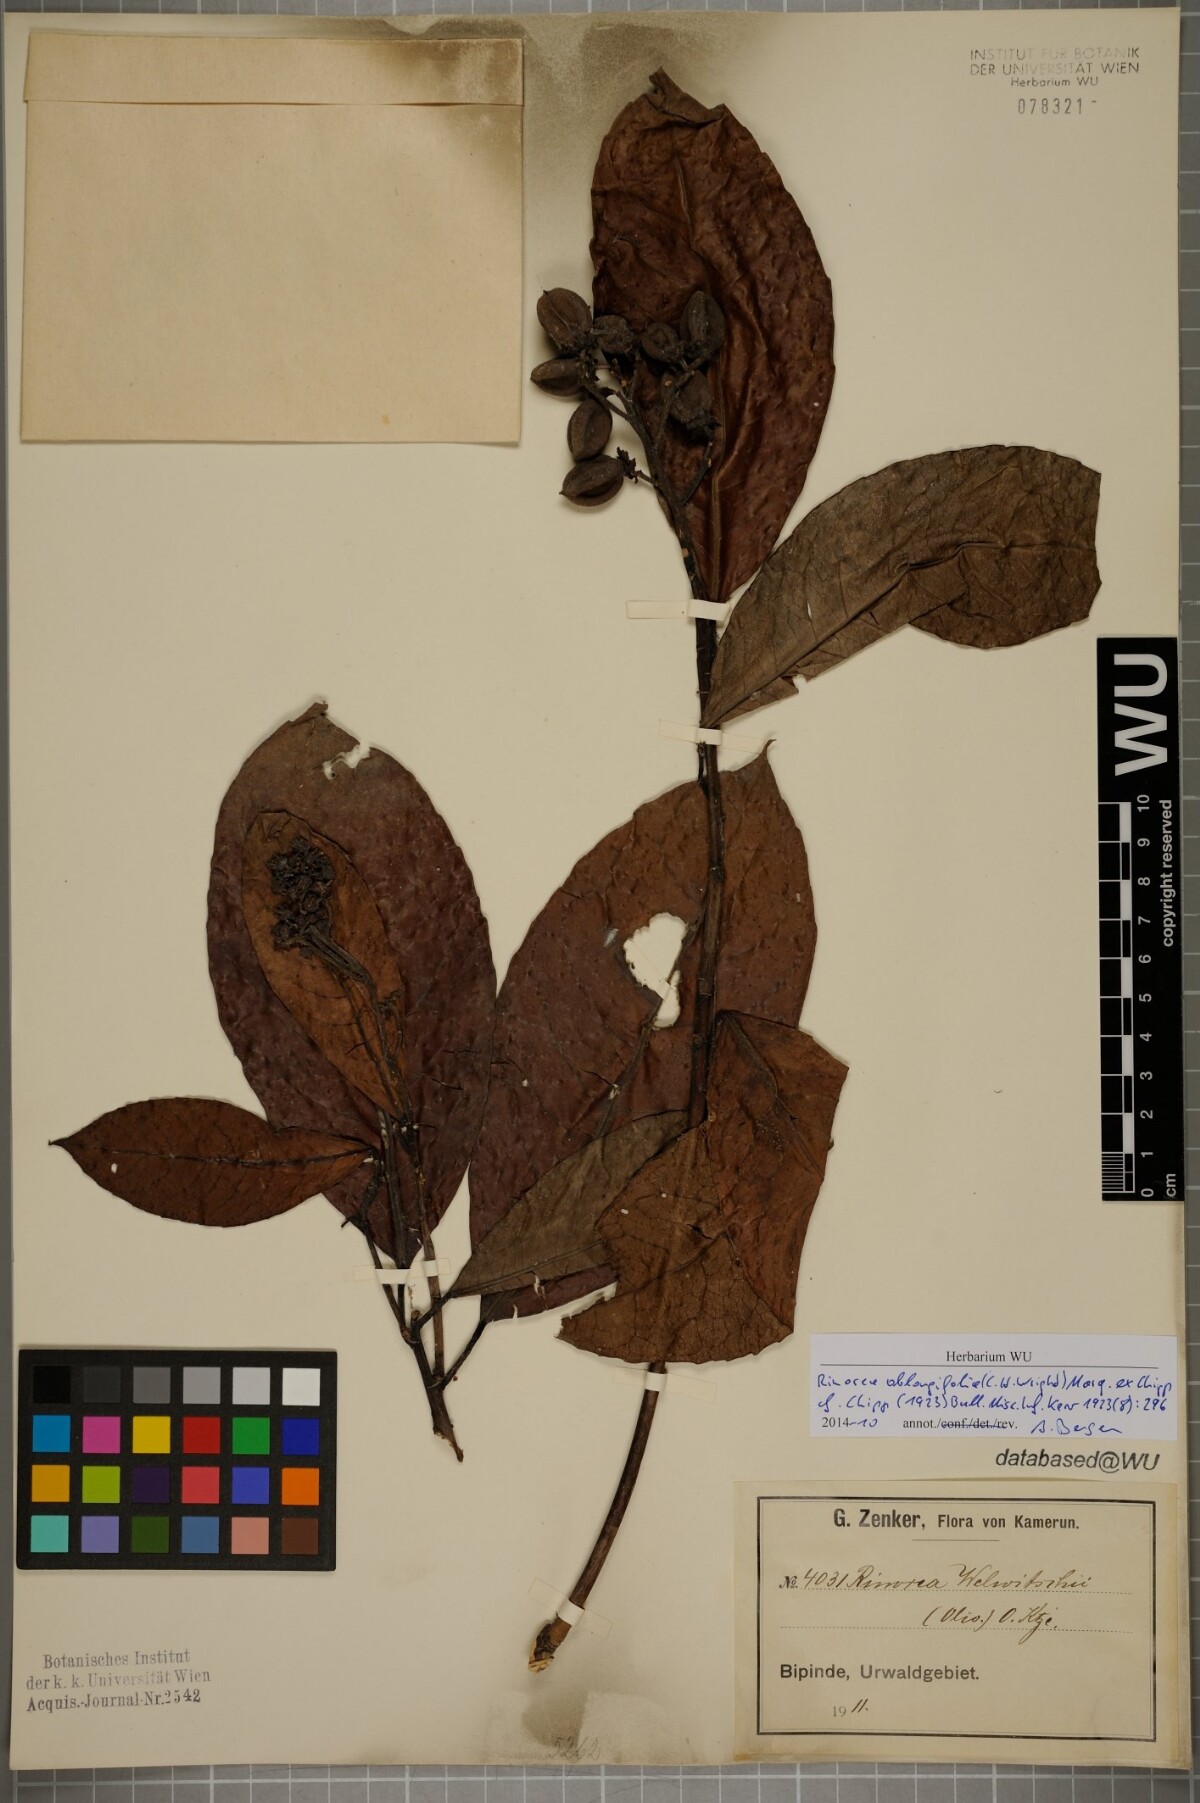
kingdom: Plantae
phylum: Tracheophyta
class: Magnoliopsida
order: Apiales
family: Pittosporaceae
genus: Marianthus
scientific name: Marianthus coeruleopunctatus
